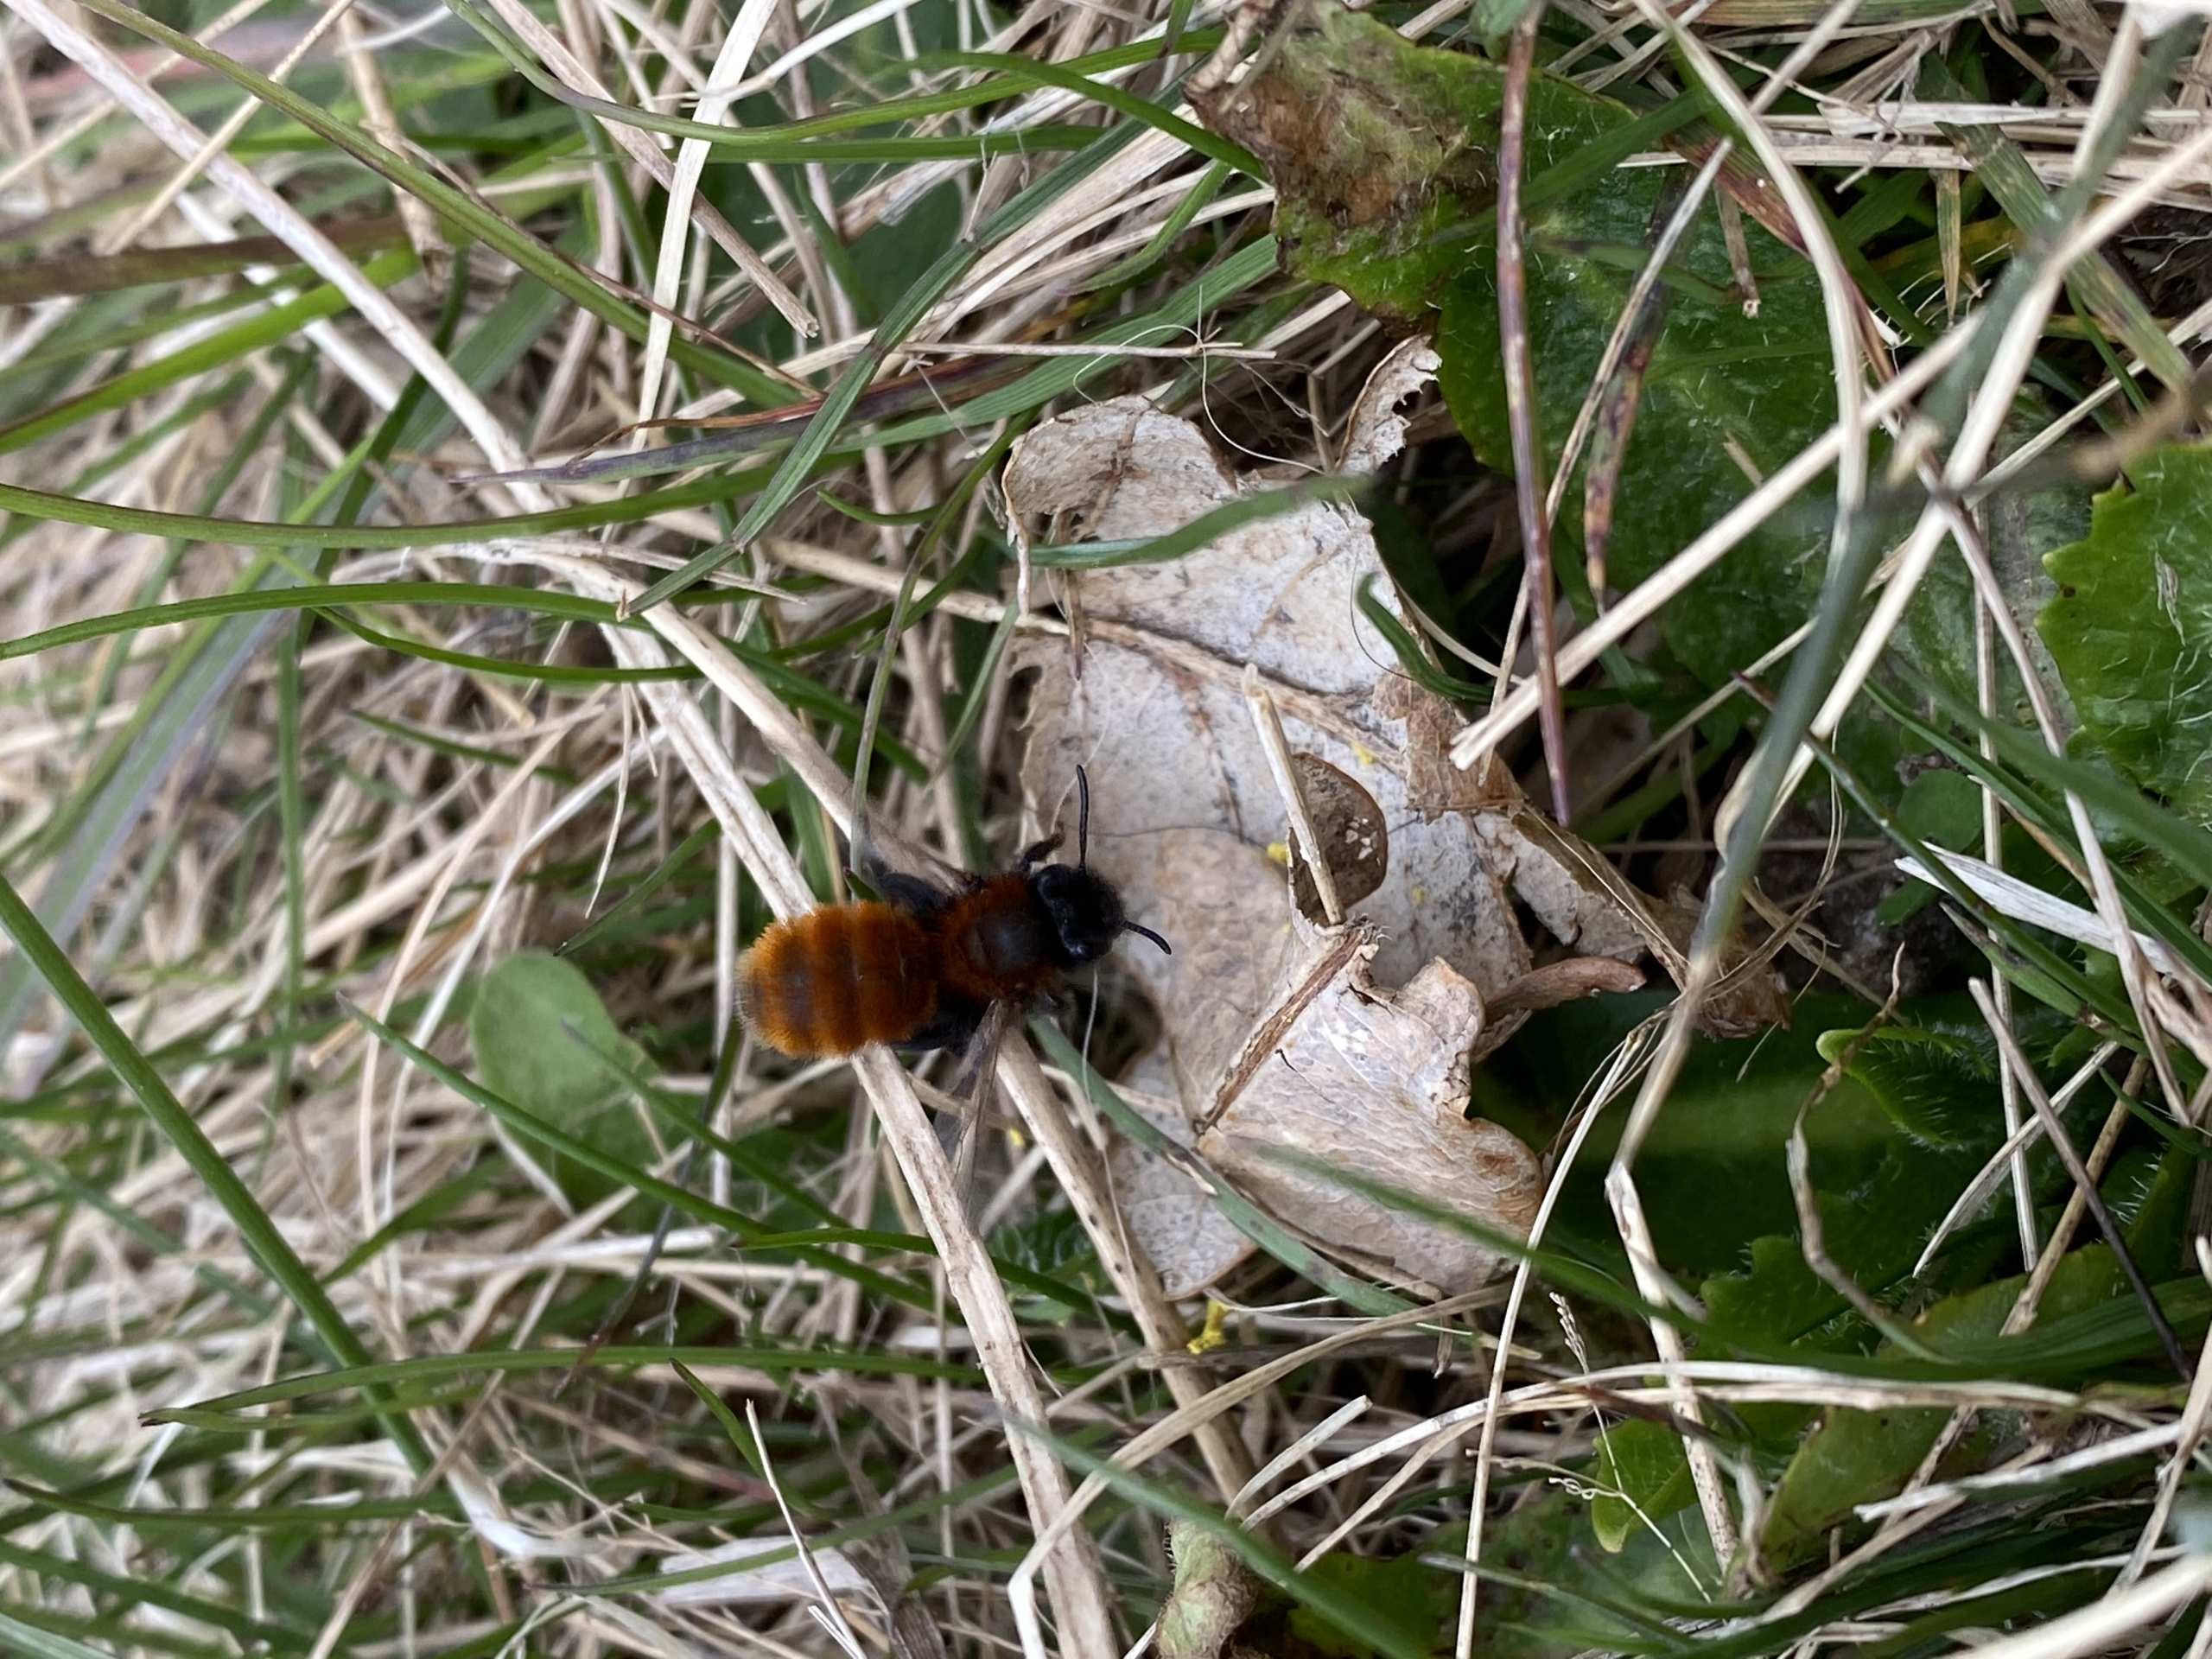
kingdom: Animalia
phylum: Arthropoda
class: Insecta
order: Hymenoptera
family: Andrenidae
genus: Andrena
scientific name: Andrena fulva
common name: Rødpelset jordbi
